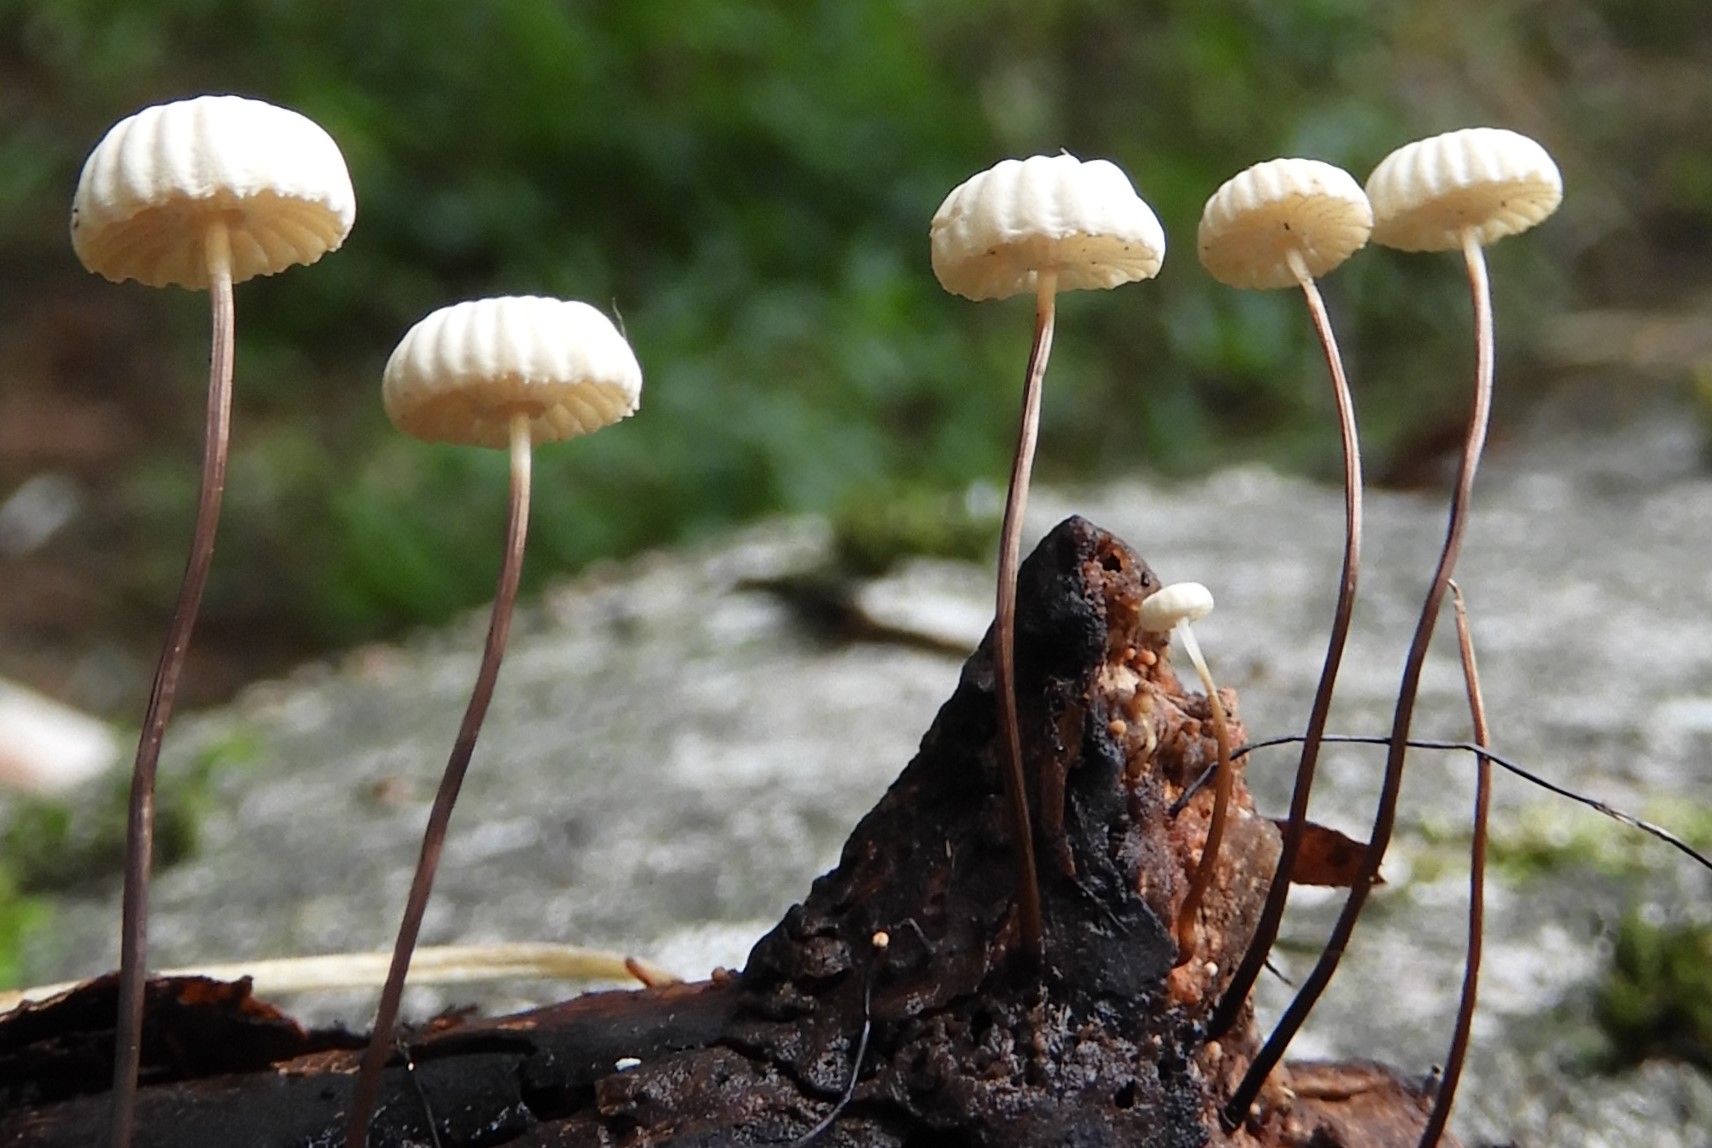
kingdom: Fungi
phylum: Basidiomycota
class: Agaricomycetes
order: Agaricales
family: Marasmiaceae
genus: Marasmius
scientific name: Marasmius rotula
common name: hjul-bruskhat
